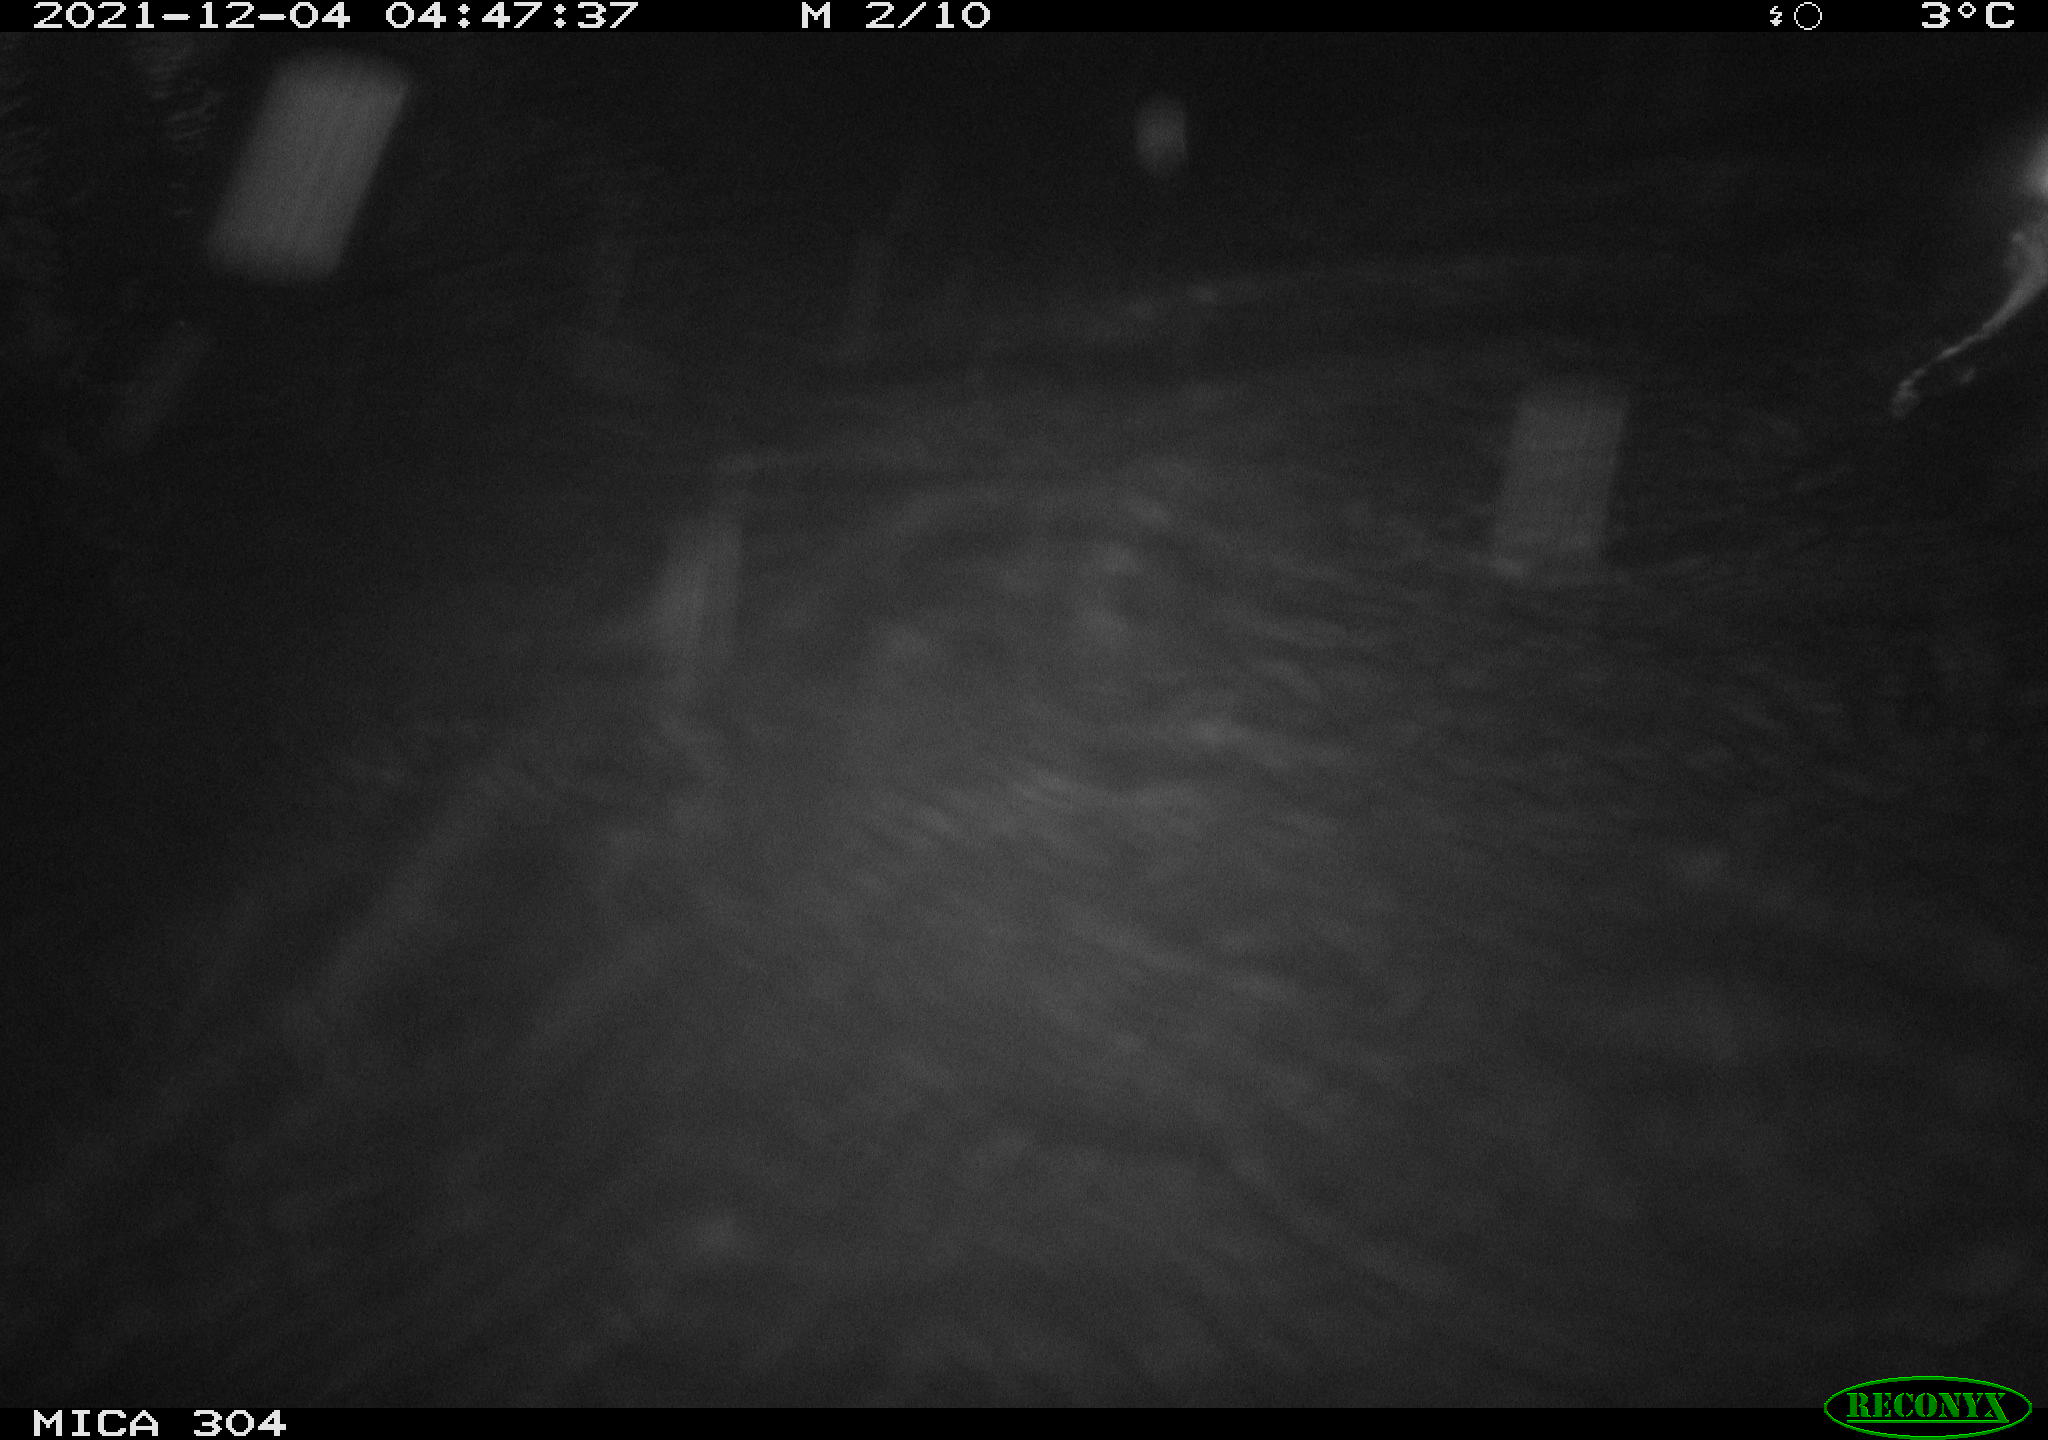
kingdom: Animalia
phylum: Chordata
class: Mammalia
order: Rodentia
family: Cricetidae
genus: Ondatra
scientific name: Ondatra zibethicus
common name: Muskrat
